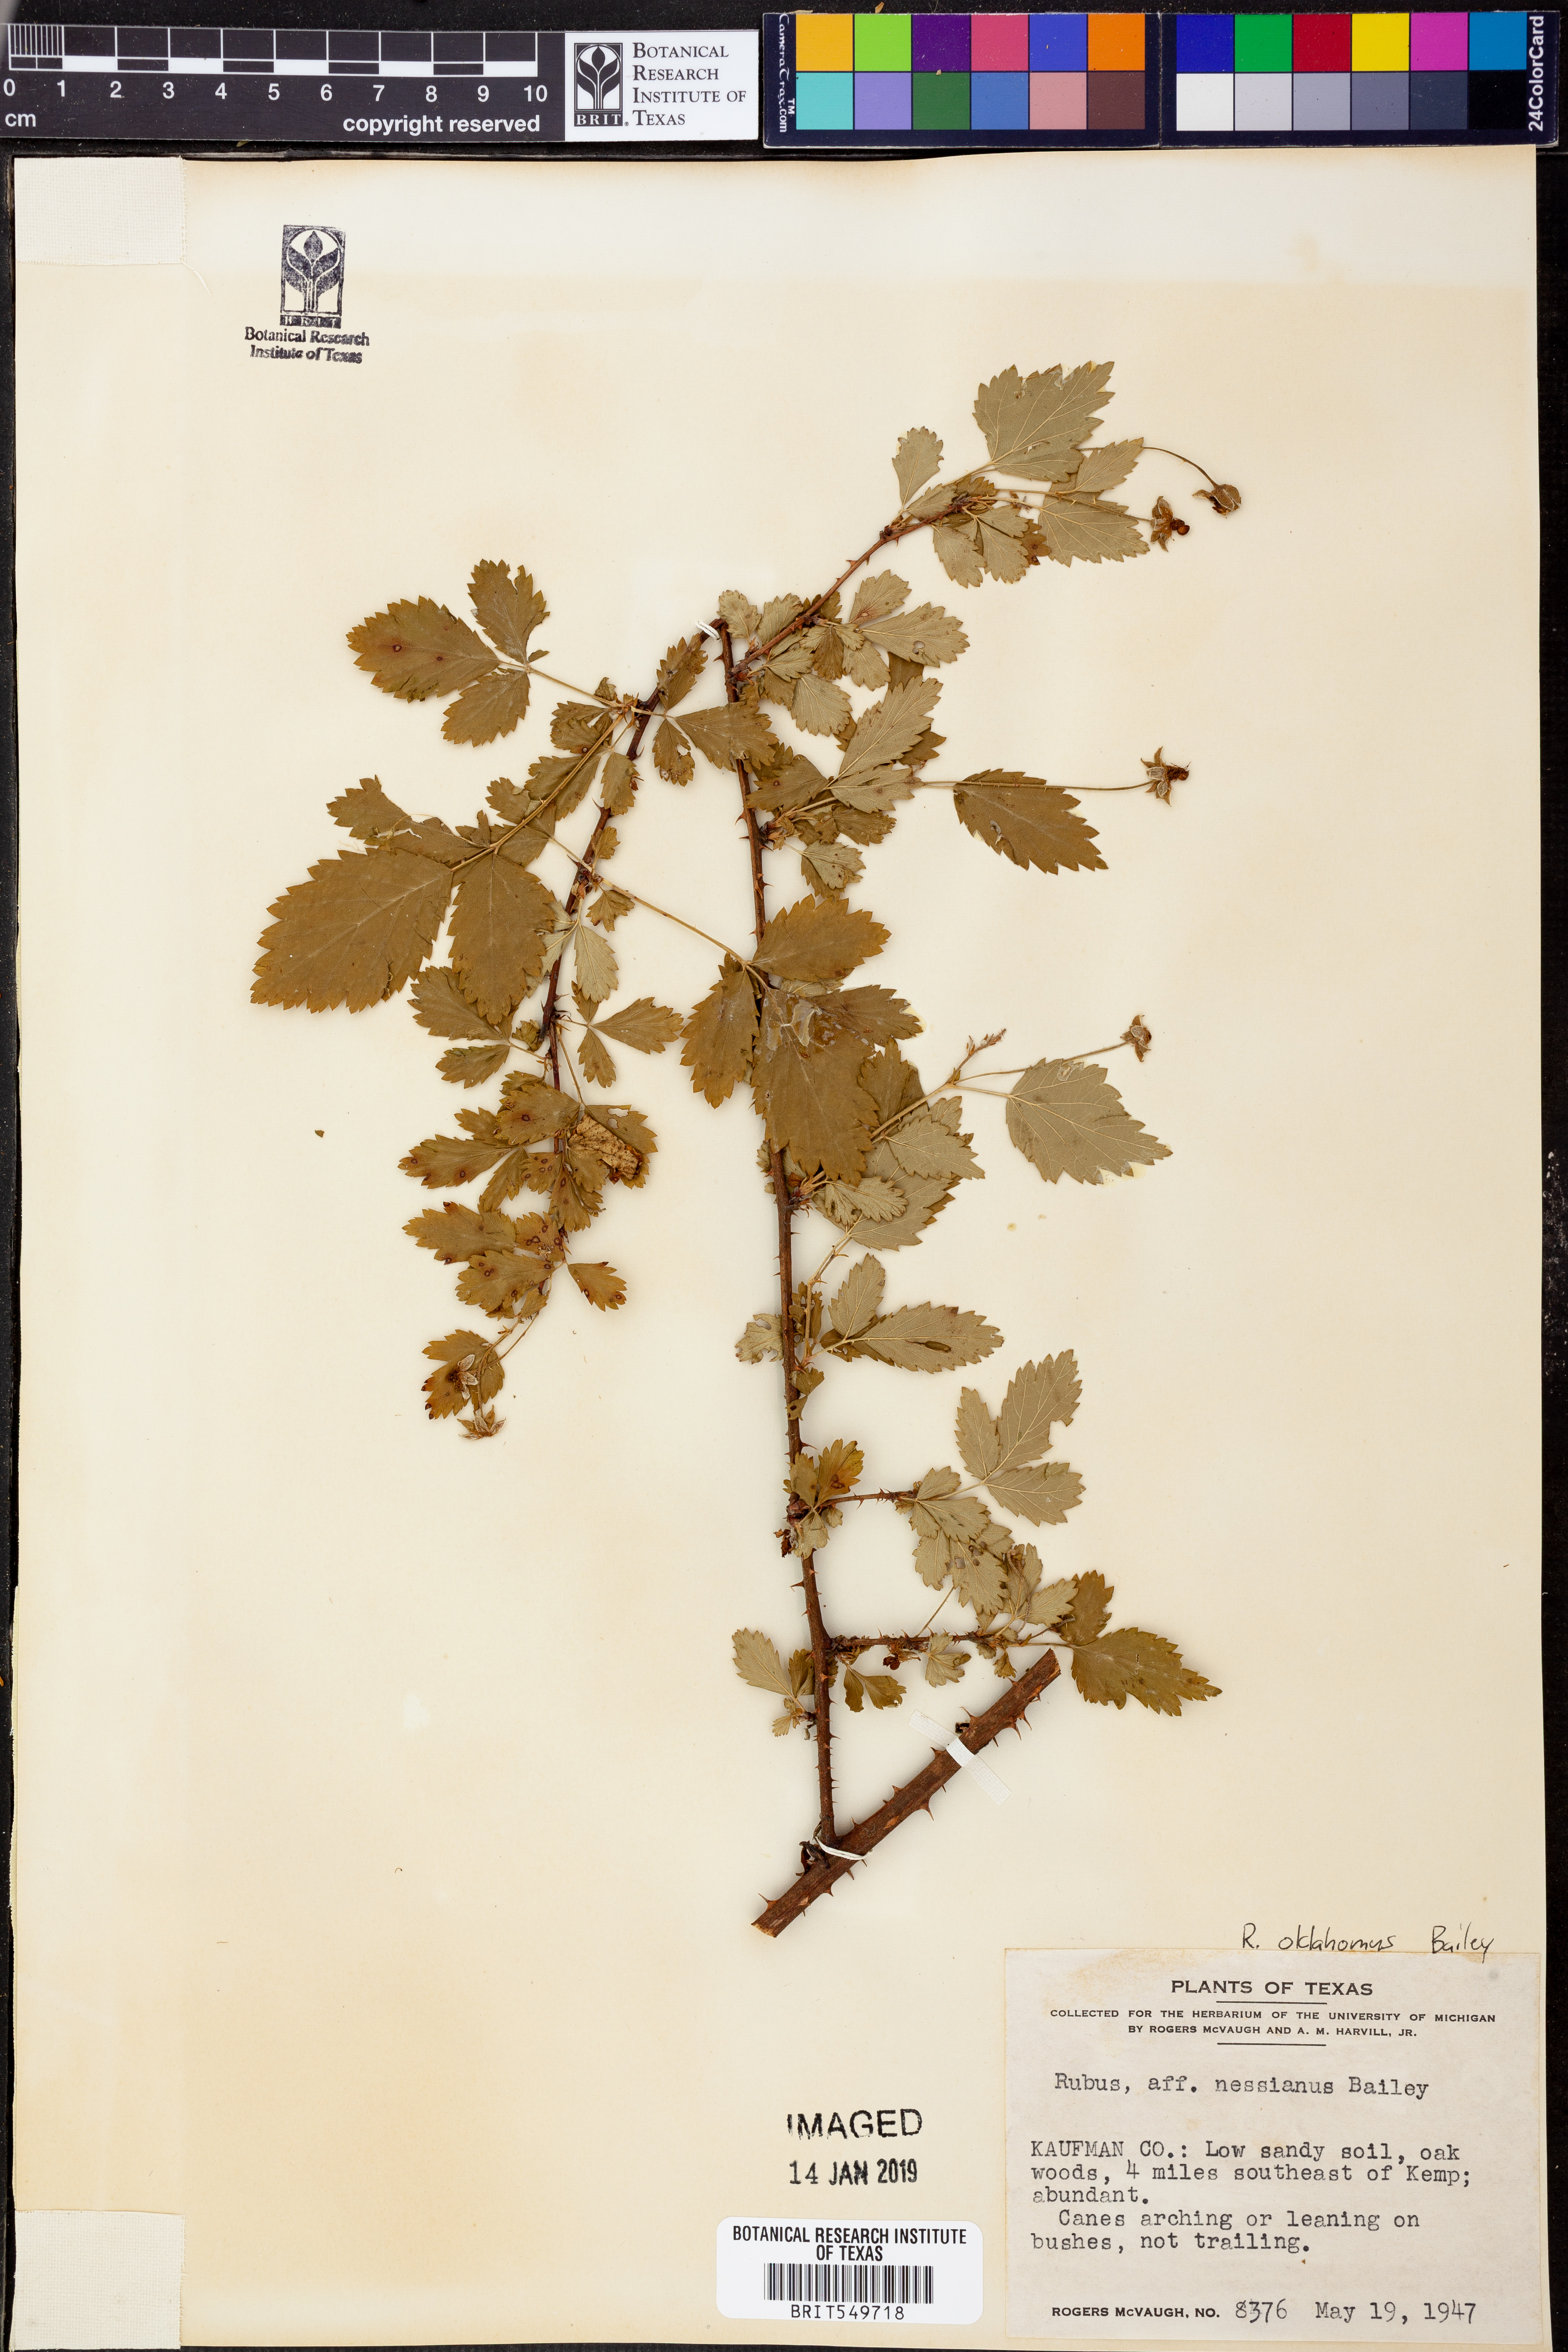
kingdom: Plantae
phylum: Tracheophyta
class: Magnoliopsida
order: Rosales
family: Rosaceae
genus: Rubus
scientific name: Rubus oklahomus
